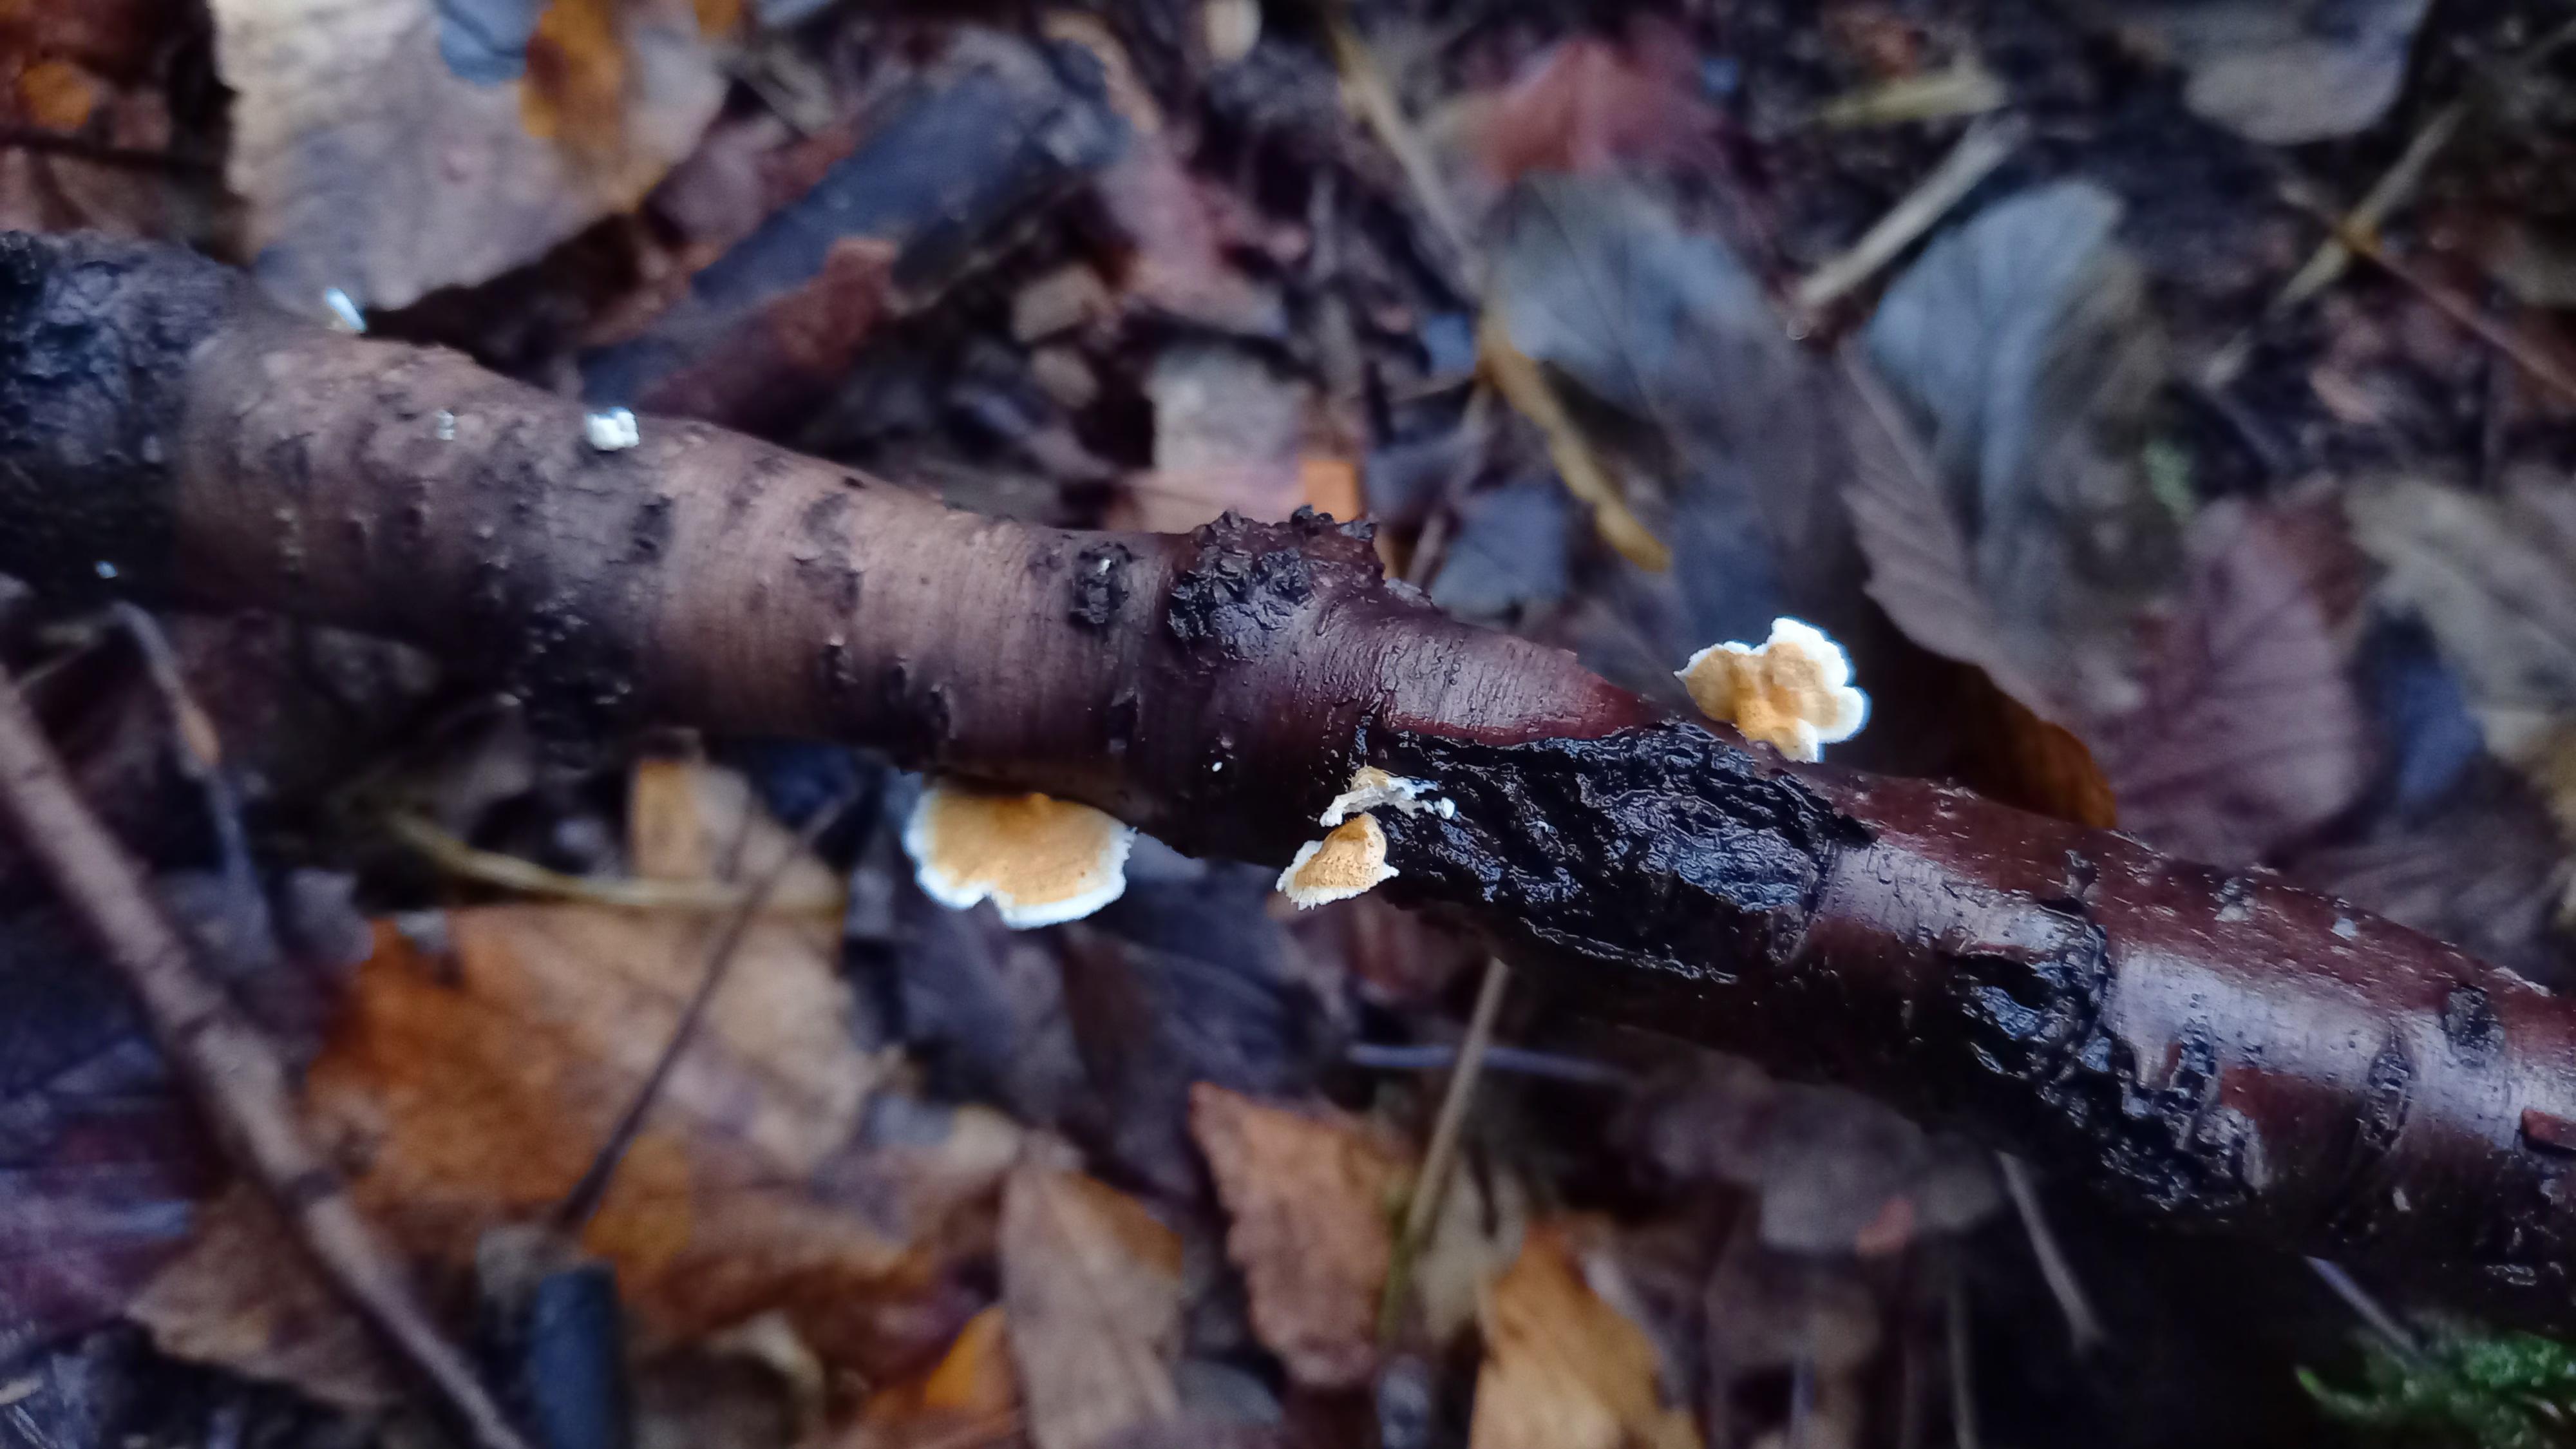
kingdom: Fungi
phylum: Basidiomycota
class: Agaricomycetes
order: Amylocorticiales
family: Amylocorticiaceae
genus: Plicaturopsis
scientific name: Plicaturopsis crispa
